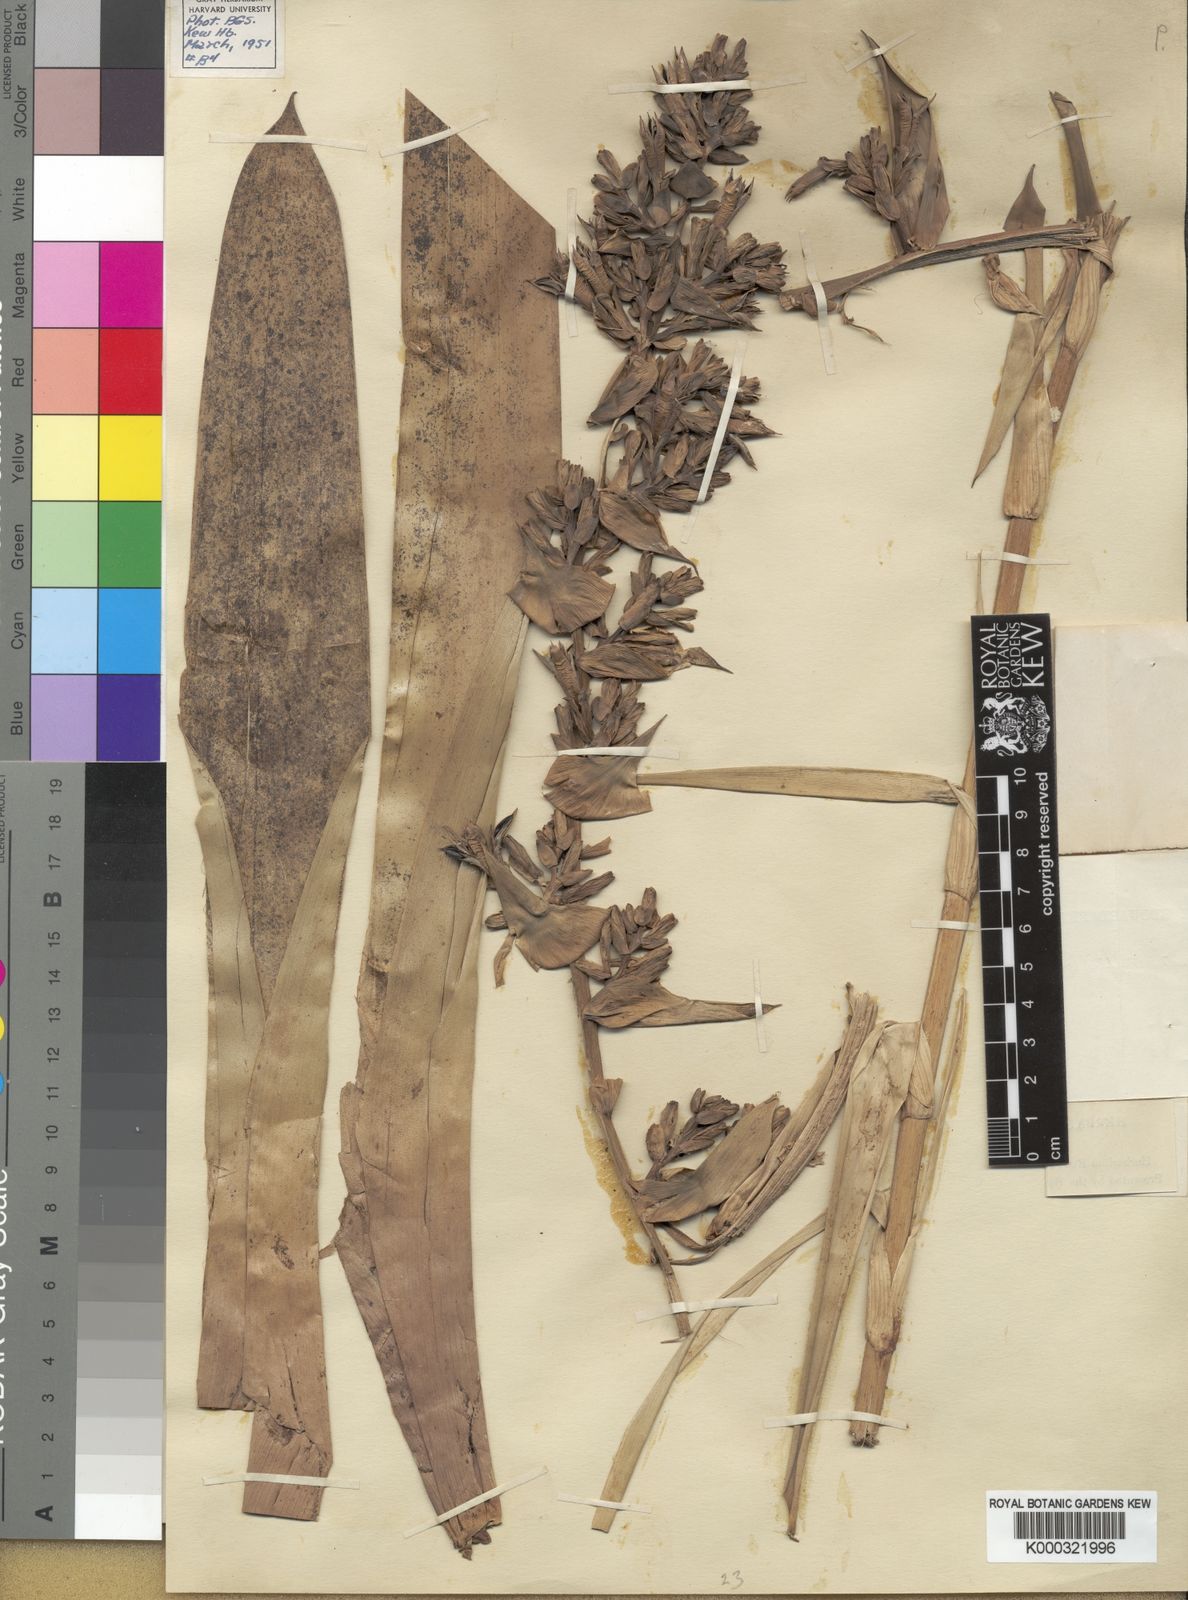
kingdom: Plantae
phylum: Tracheophyta
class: Liliopsida
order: Poales
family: Bromeliaceae
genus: Guzmania
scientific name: Guzmania multiflora
